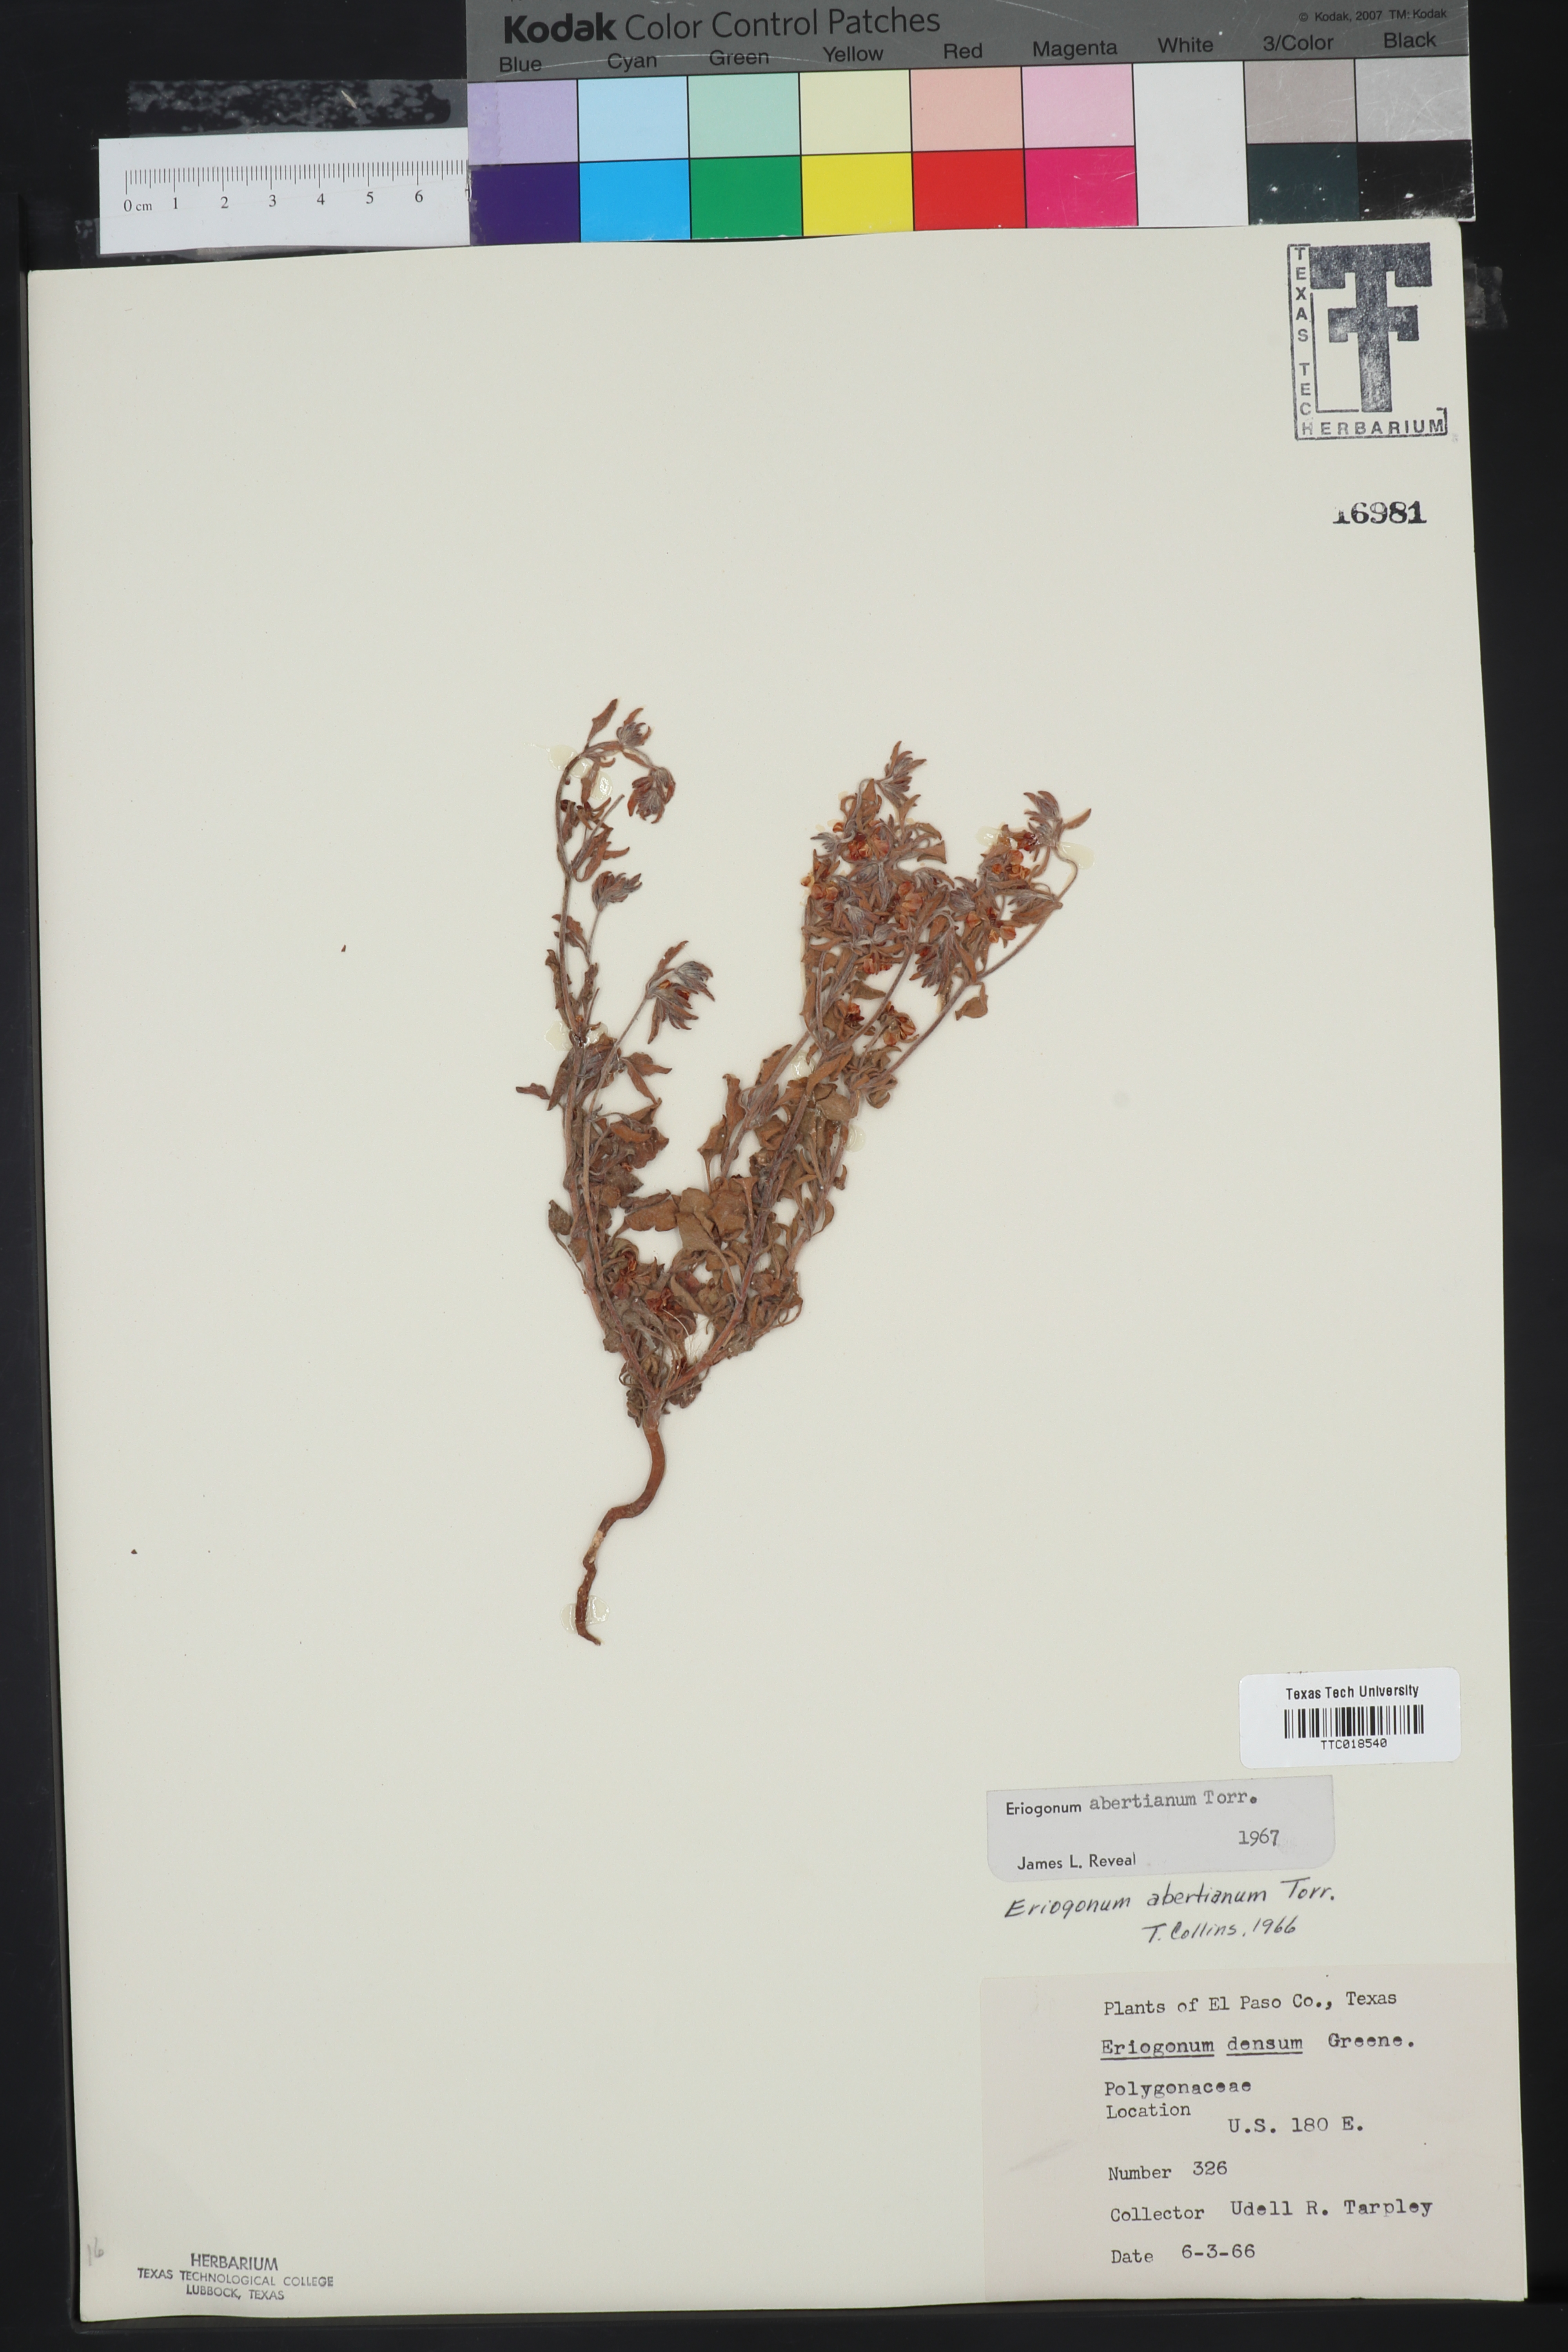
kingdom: Plantae
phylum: Tracheophyta
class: Magnoliopsida
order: Caryophyllales
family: Polygonaceae
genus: Eriogonum
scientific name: Eriogonum abertianum
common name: Abert's wild buckwheat
